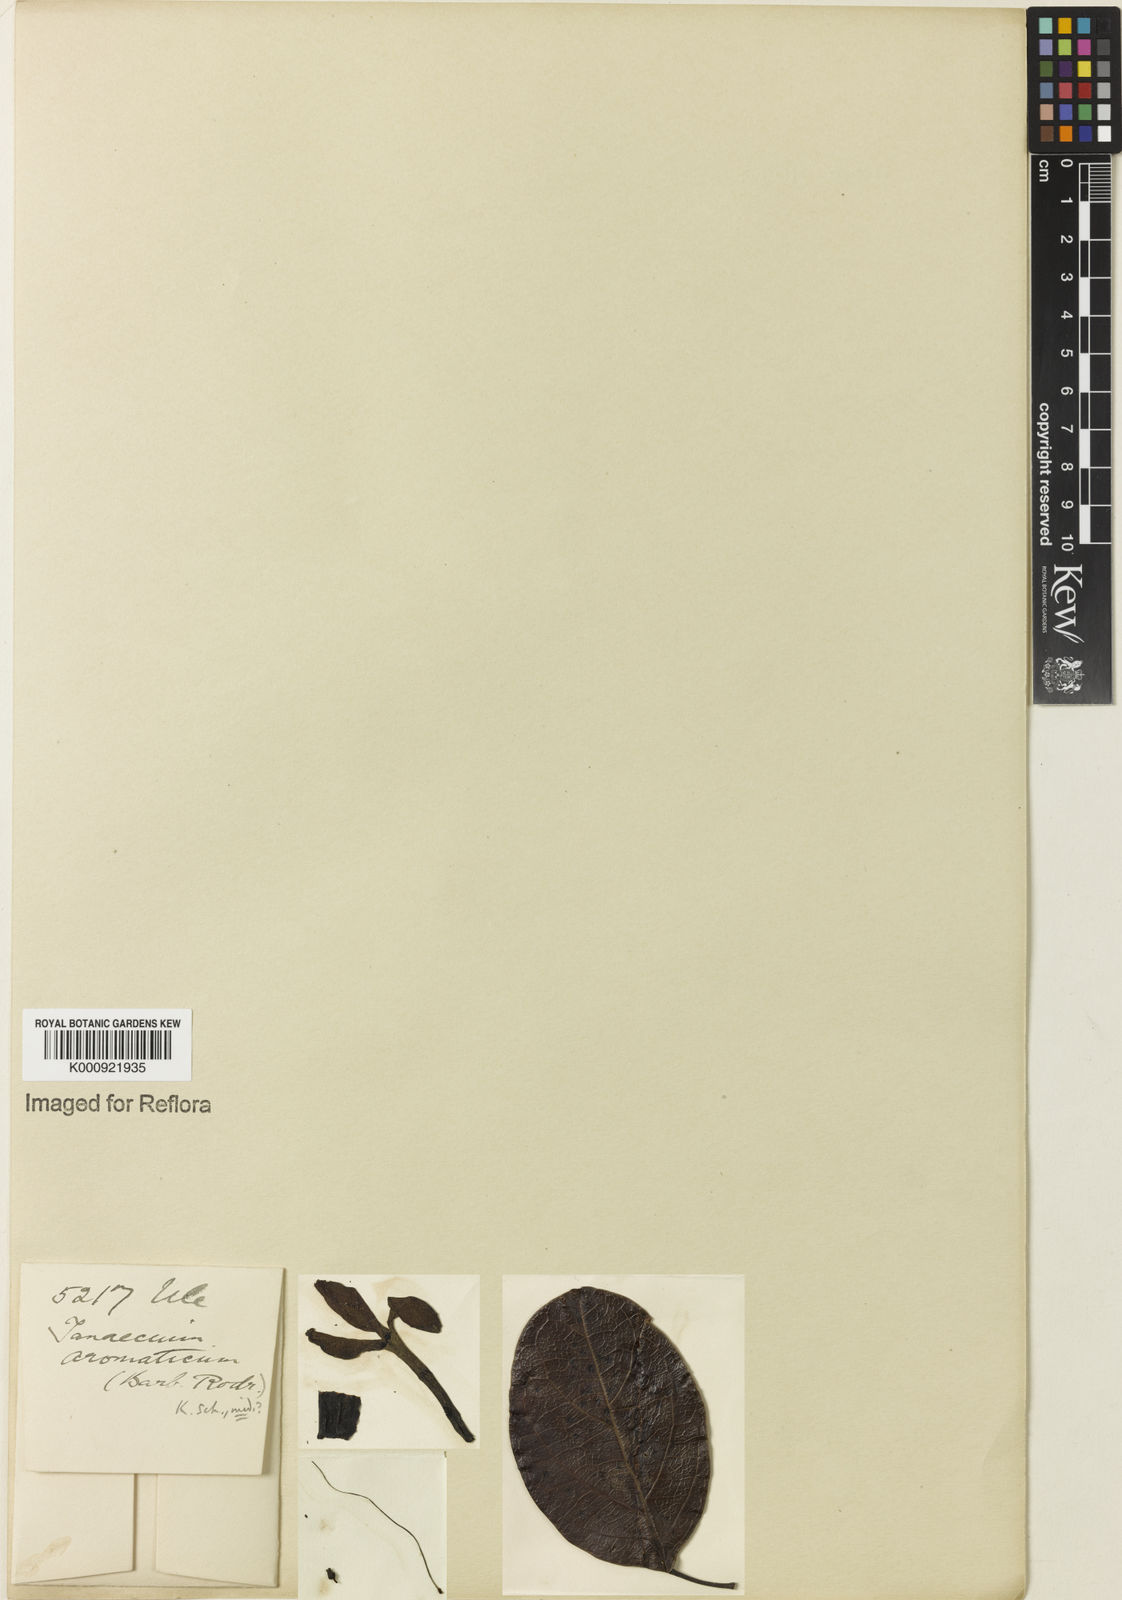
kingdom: Plantae
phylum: Tracheophyta
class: Magnoliopsida
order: Lamiales
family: Bignoniaceae
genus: Pachyptera
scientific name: Pachyptera aromatica
